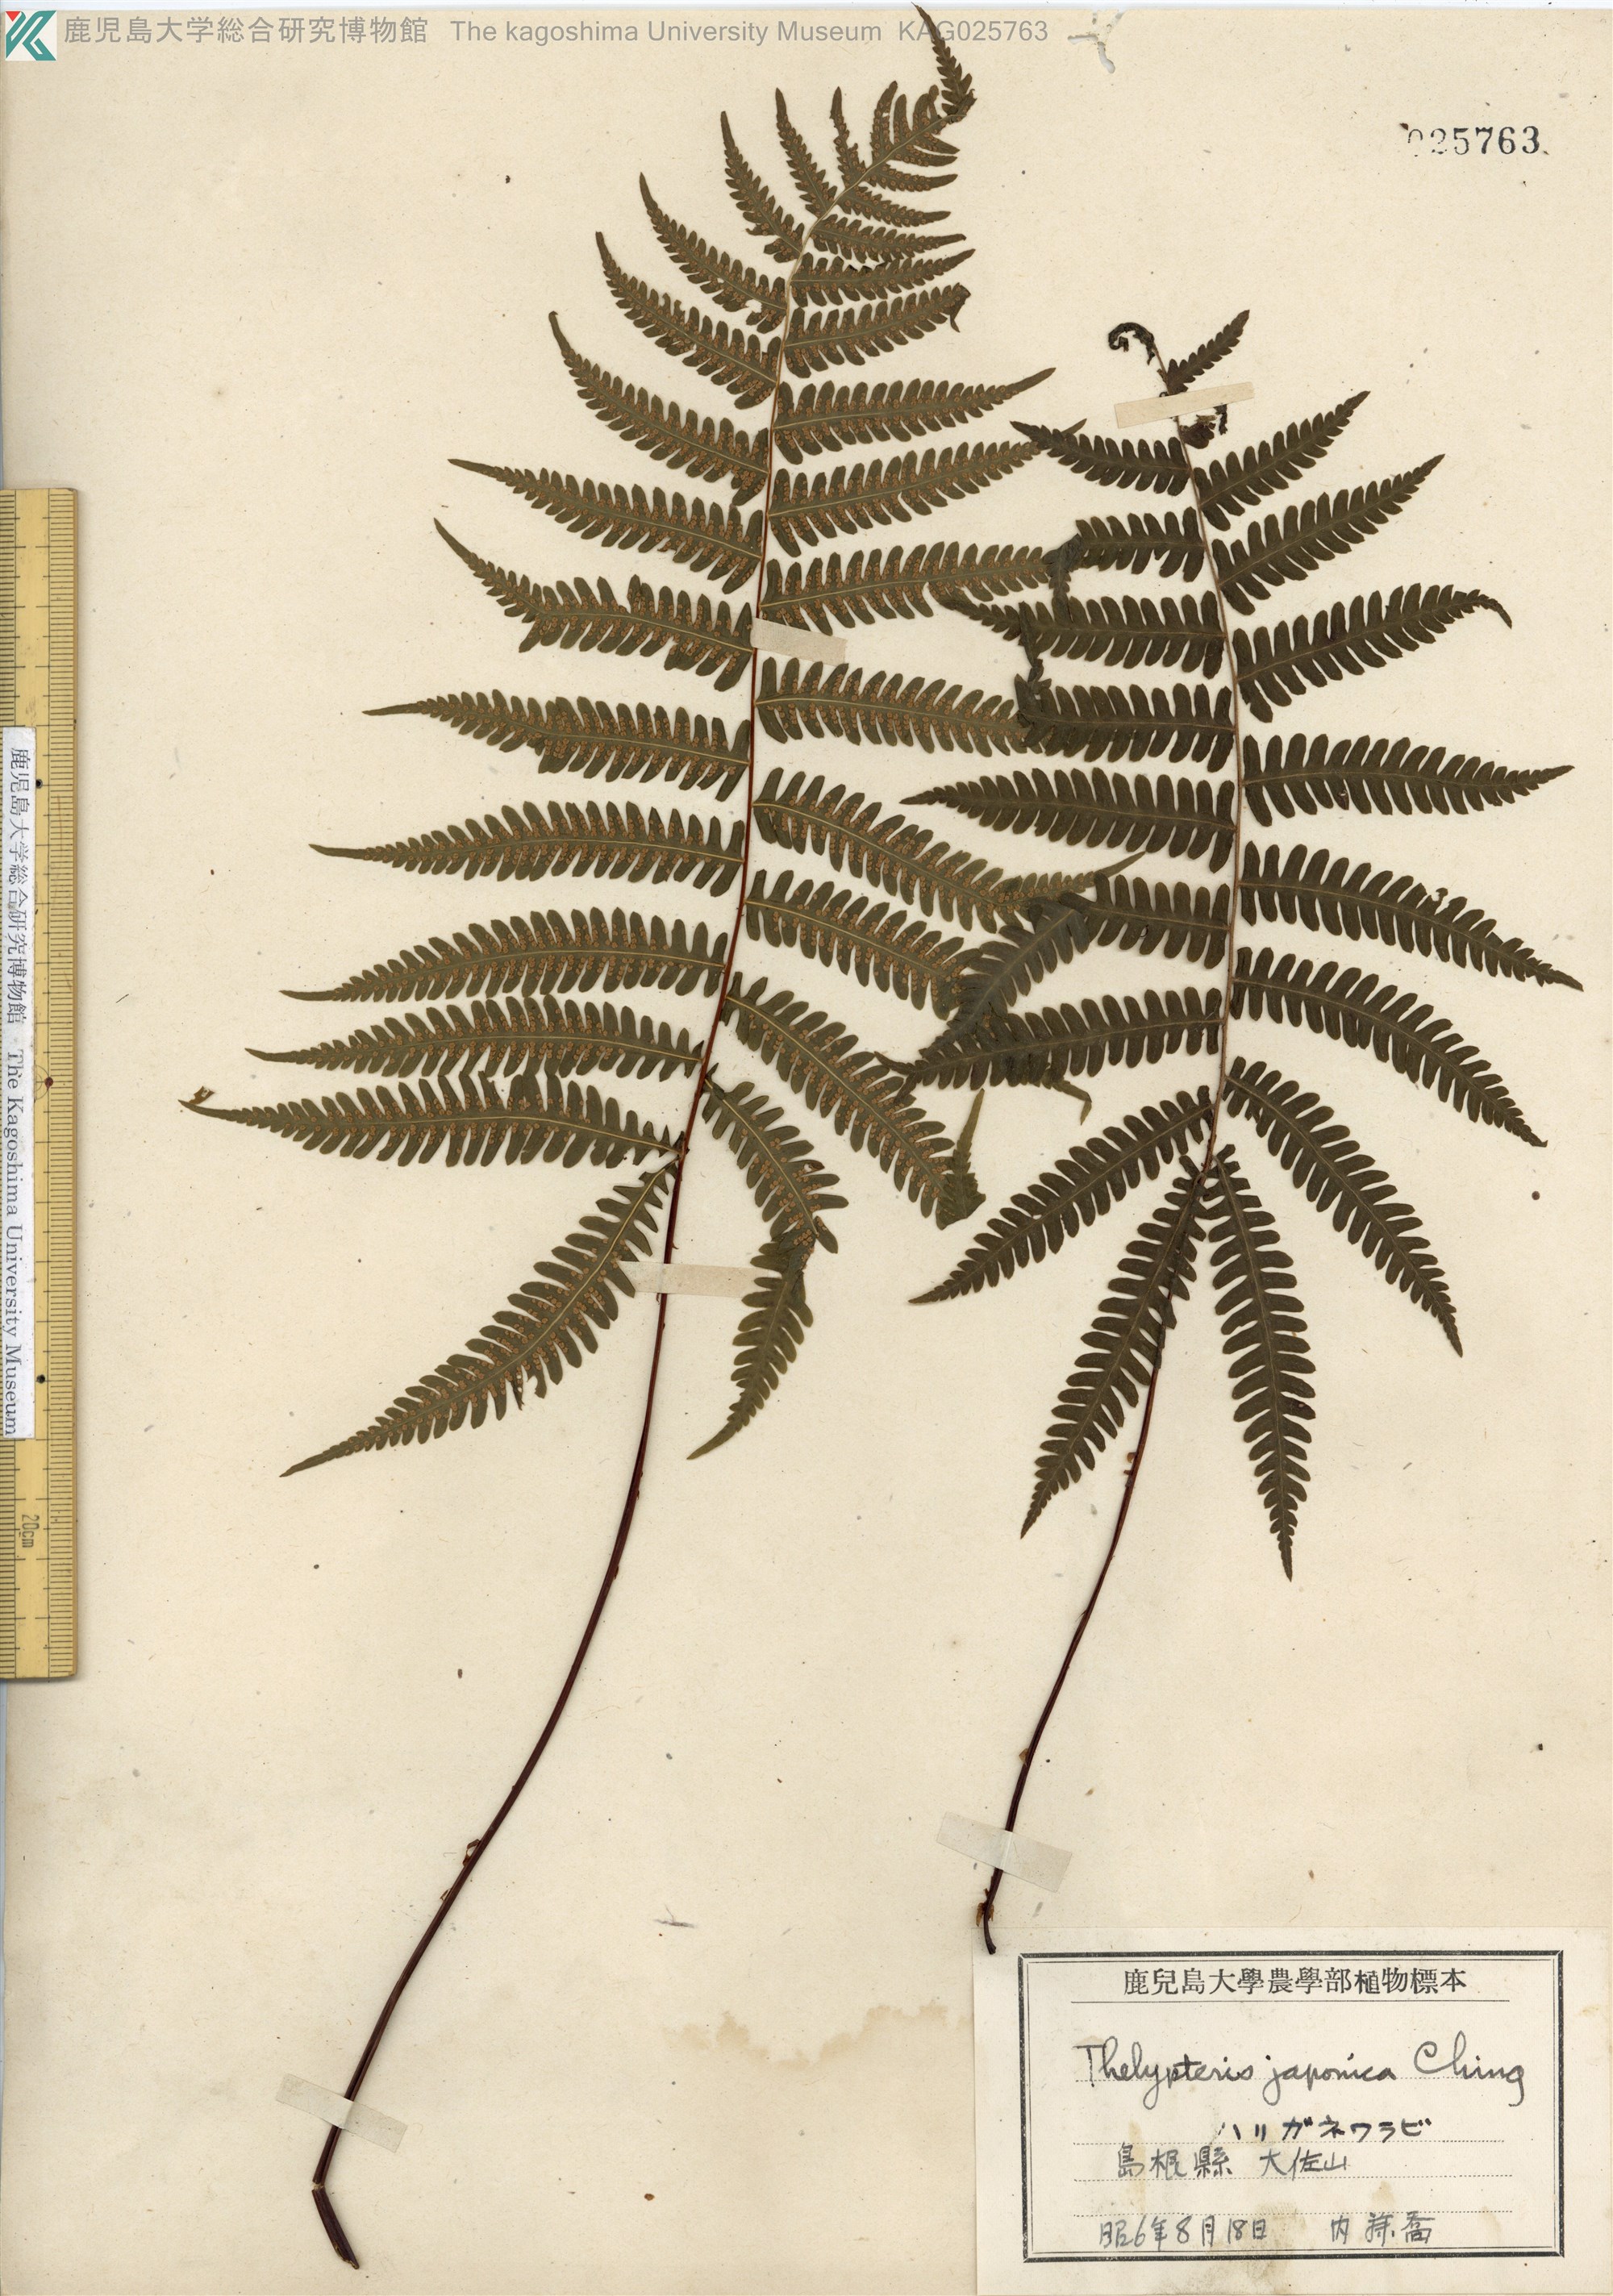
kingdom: Plantae
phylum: Tracheophyta
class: Polypodiopsida
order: Polypodiales
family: Thelypteridaceae
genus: Coryphopteris
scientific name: Coryphopteris japonica
